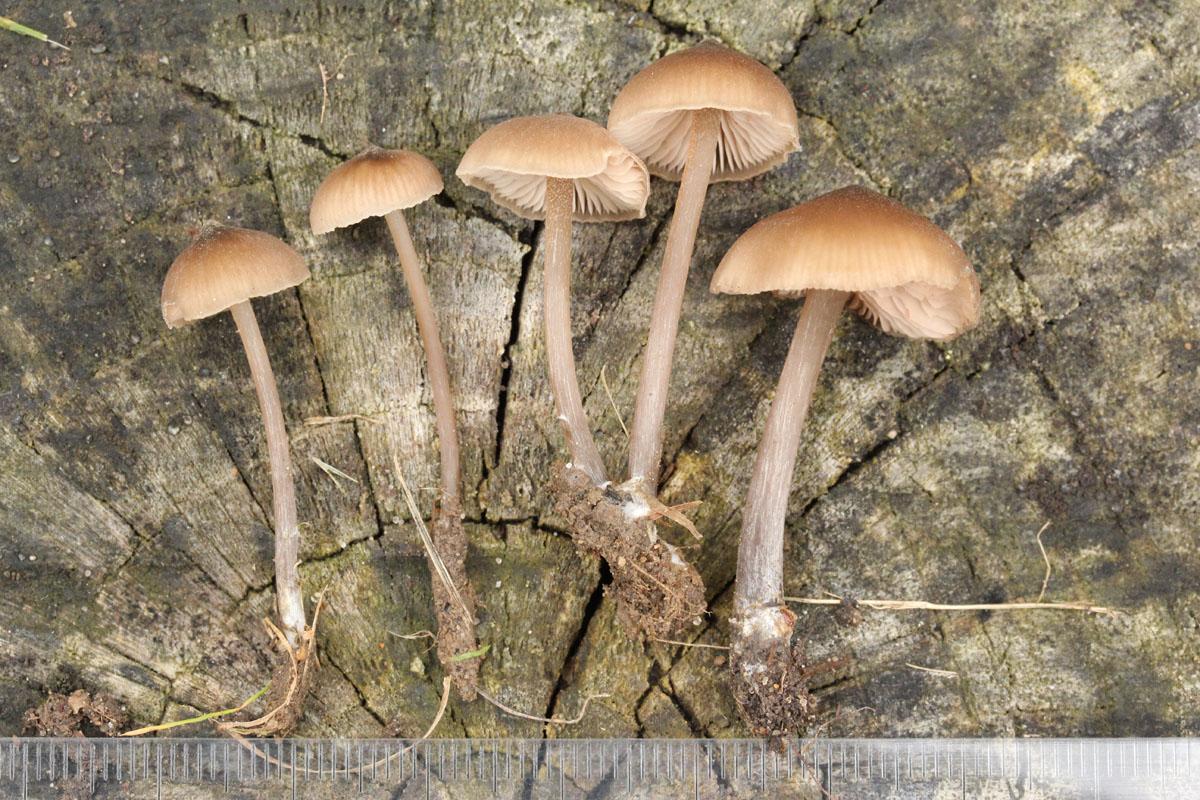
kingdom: Fungi
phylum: Basidiomycota
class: Agaricomycetes
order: Agaricales
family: Entolomataceae
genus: Entoloma
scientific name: Entoloma hebes
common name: Pimple pinkgill
